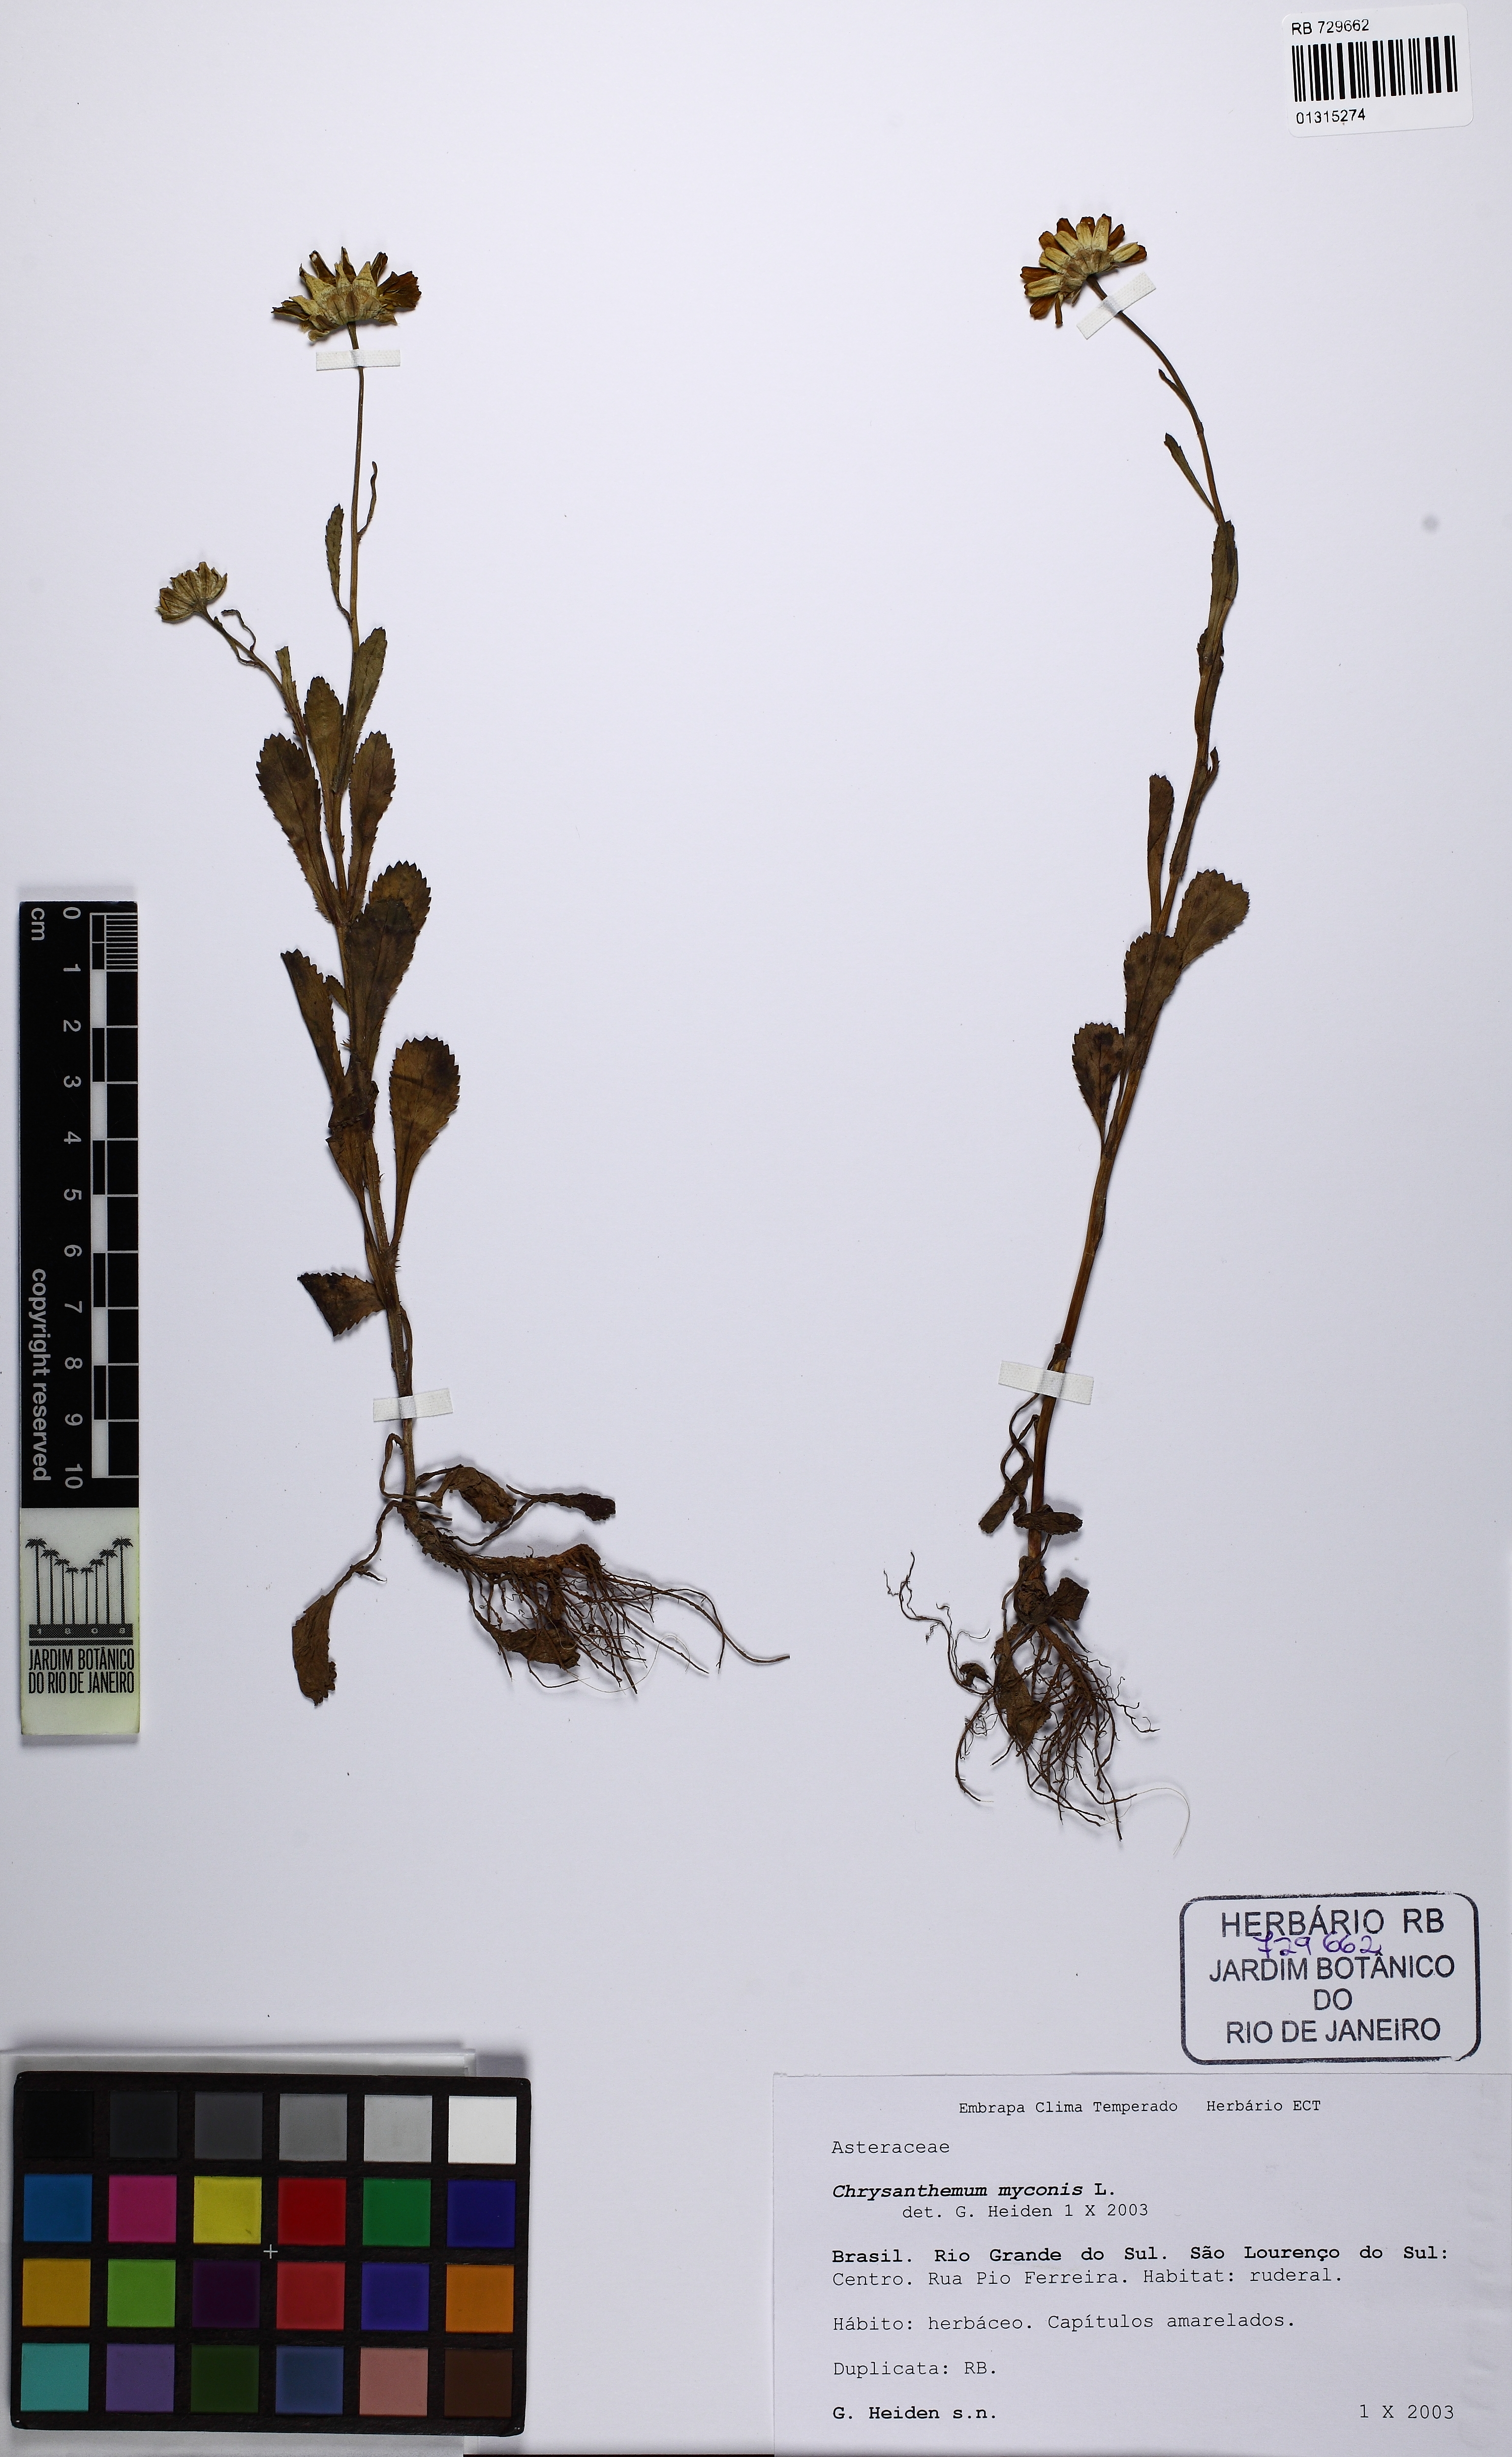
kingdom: Plantae
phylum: Tracheophyta
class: Magnoliopsida
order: Asterales
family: Asteraceae
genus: Coleostephus
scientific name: Coleostephus myconis
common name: Mediterranean marigold
